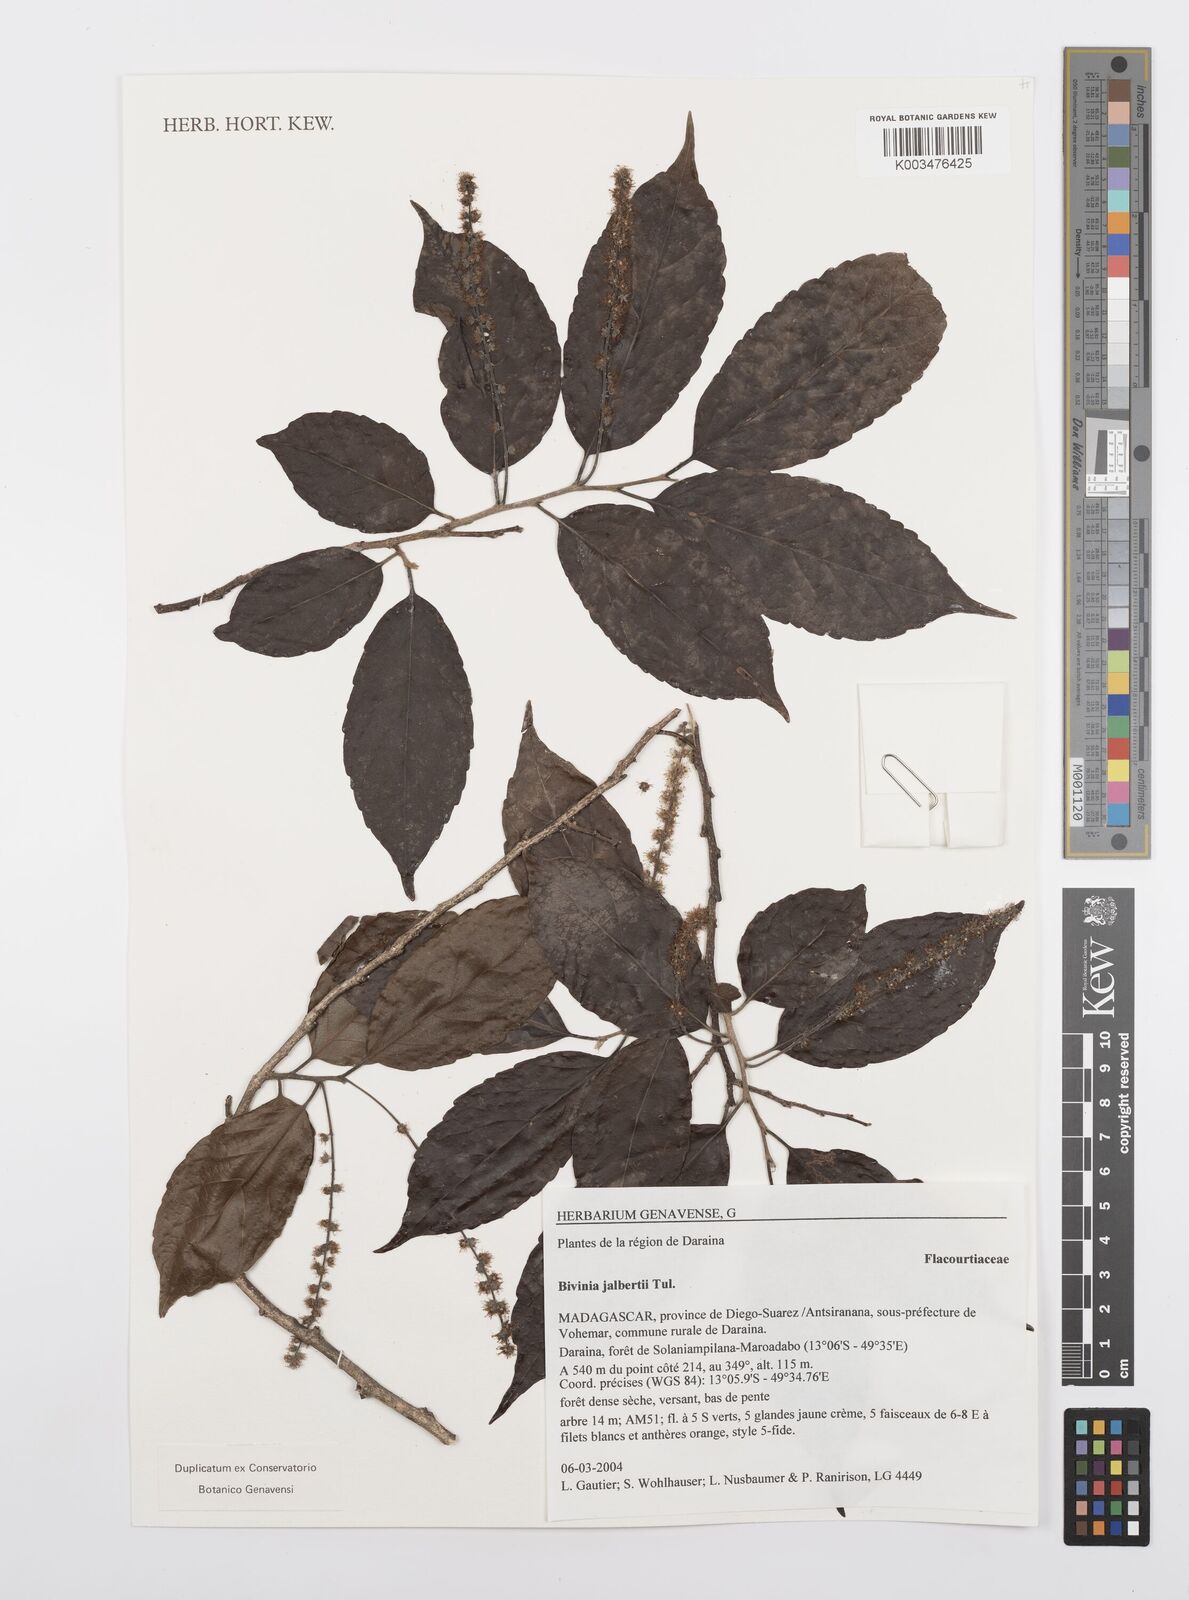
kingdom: Plantae
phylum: Tracheophyta
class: Magnoliopsida
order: Malpighiales
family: Salicaceae
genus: Bivinia
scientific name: Bivinia jalbertii
